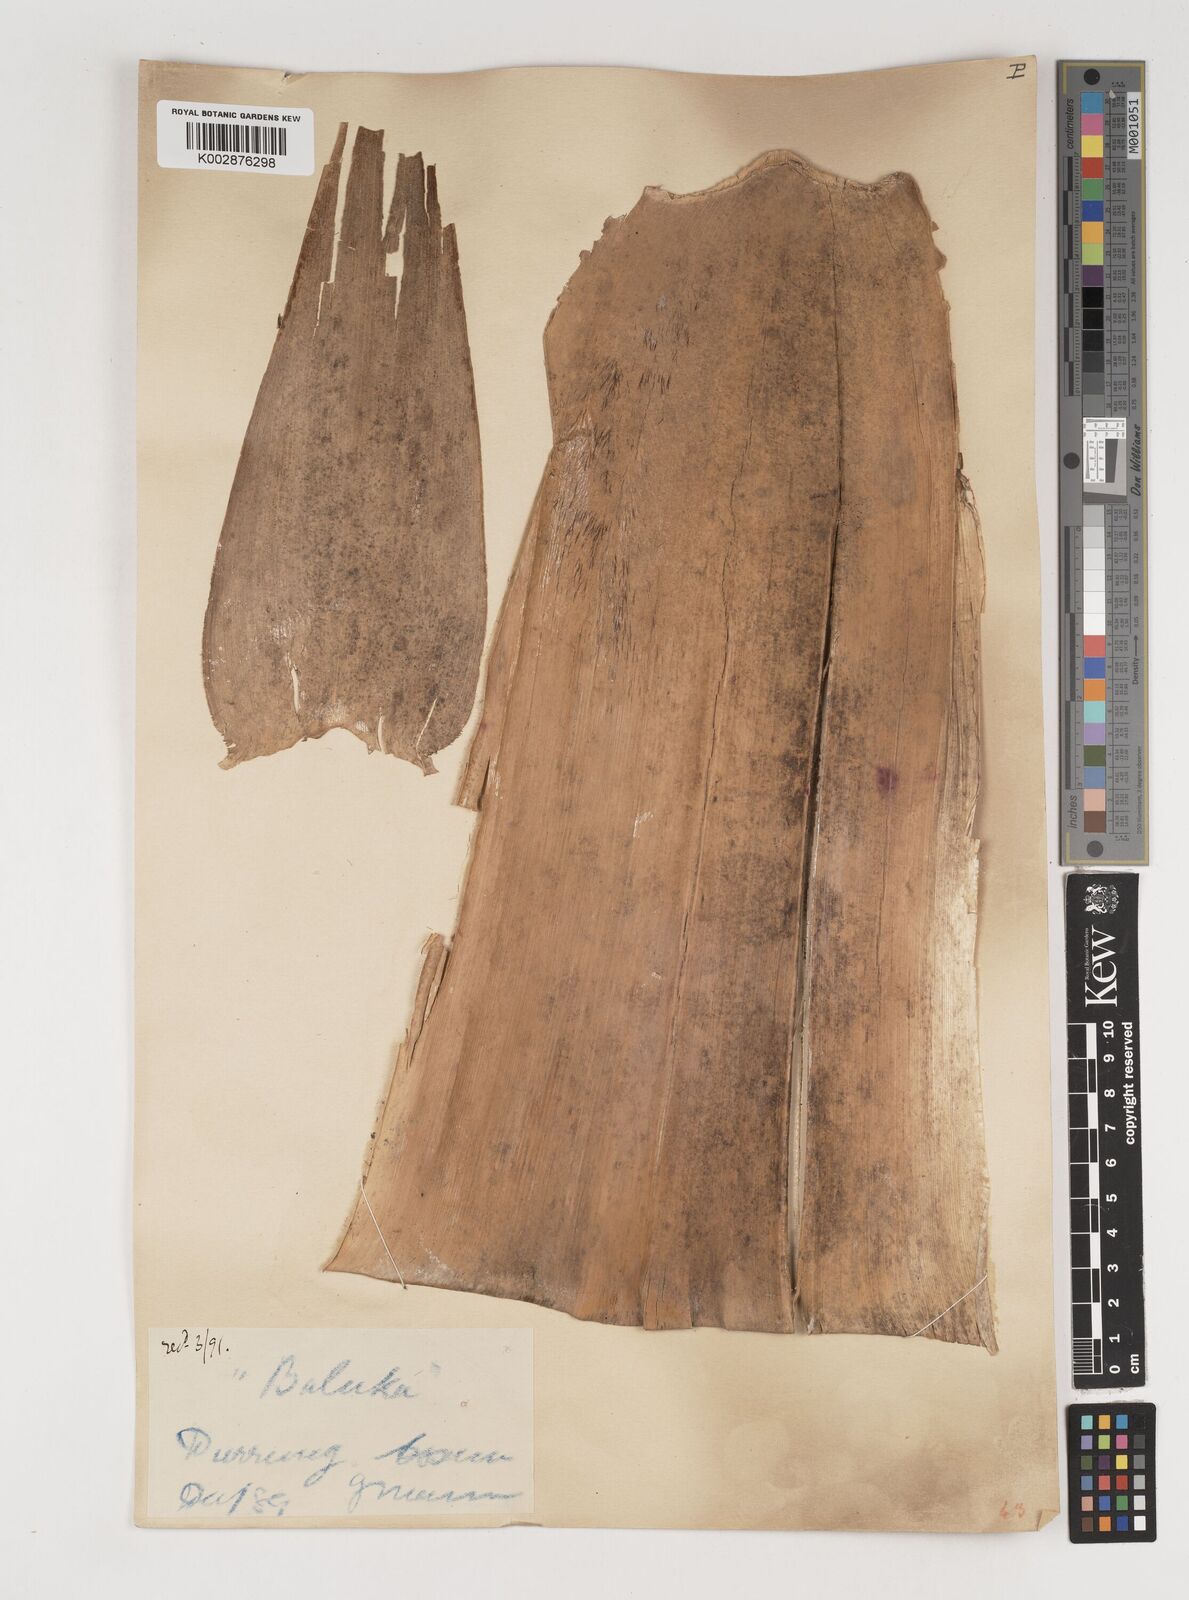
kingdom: Plantae
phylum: Tracheophyta
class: Liliopsida
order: Poales
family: Poaceae
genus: Bambusa
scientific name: Bambusa balcooa
